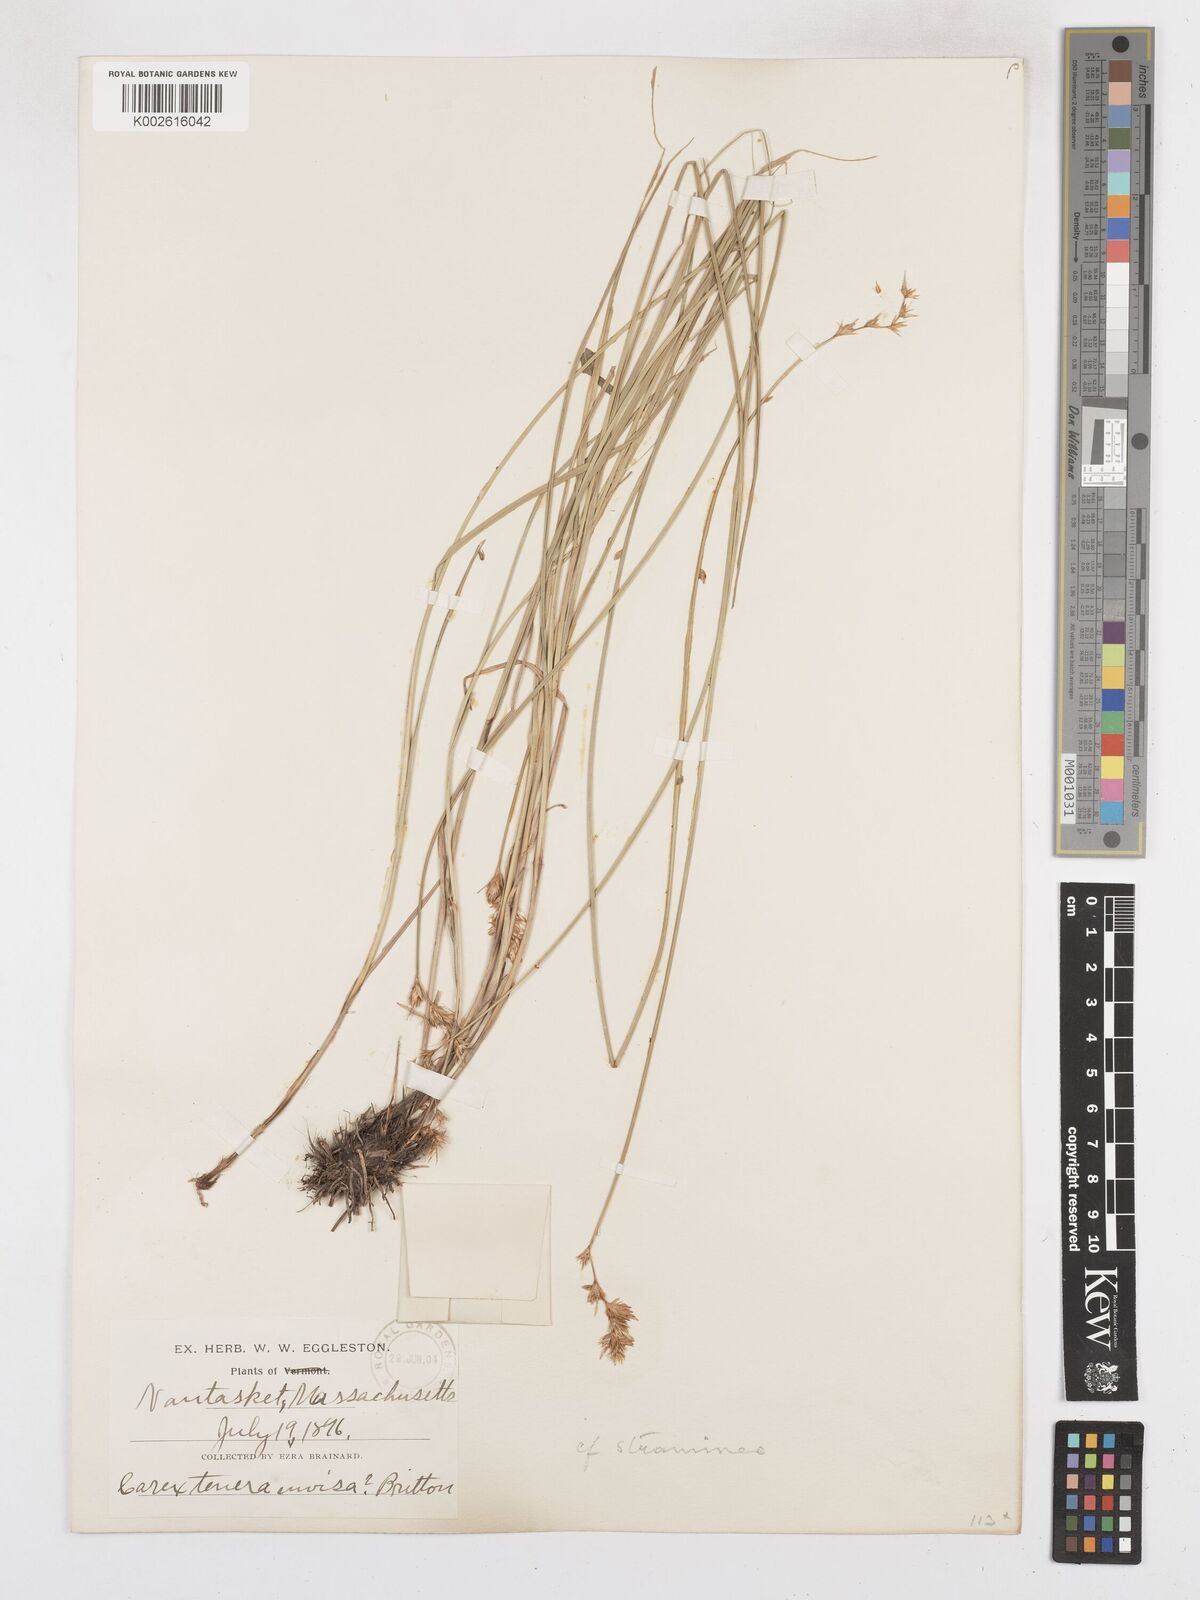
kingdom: Plantae
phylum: Tracheophyta
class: Liliopsida
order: Poales
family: Cyperaceae
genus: Carex
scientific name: Carex festucacea
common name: Fescue oval sedge
